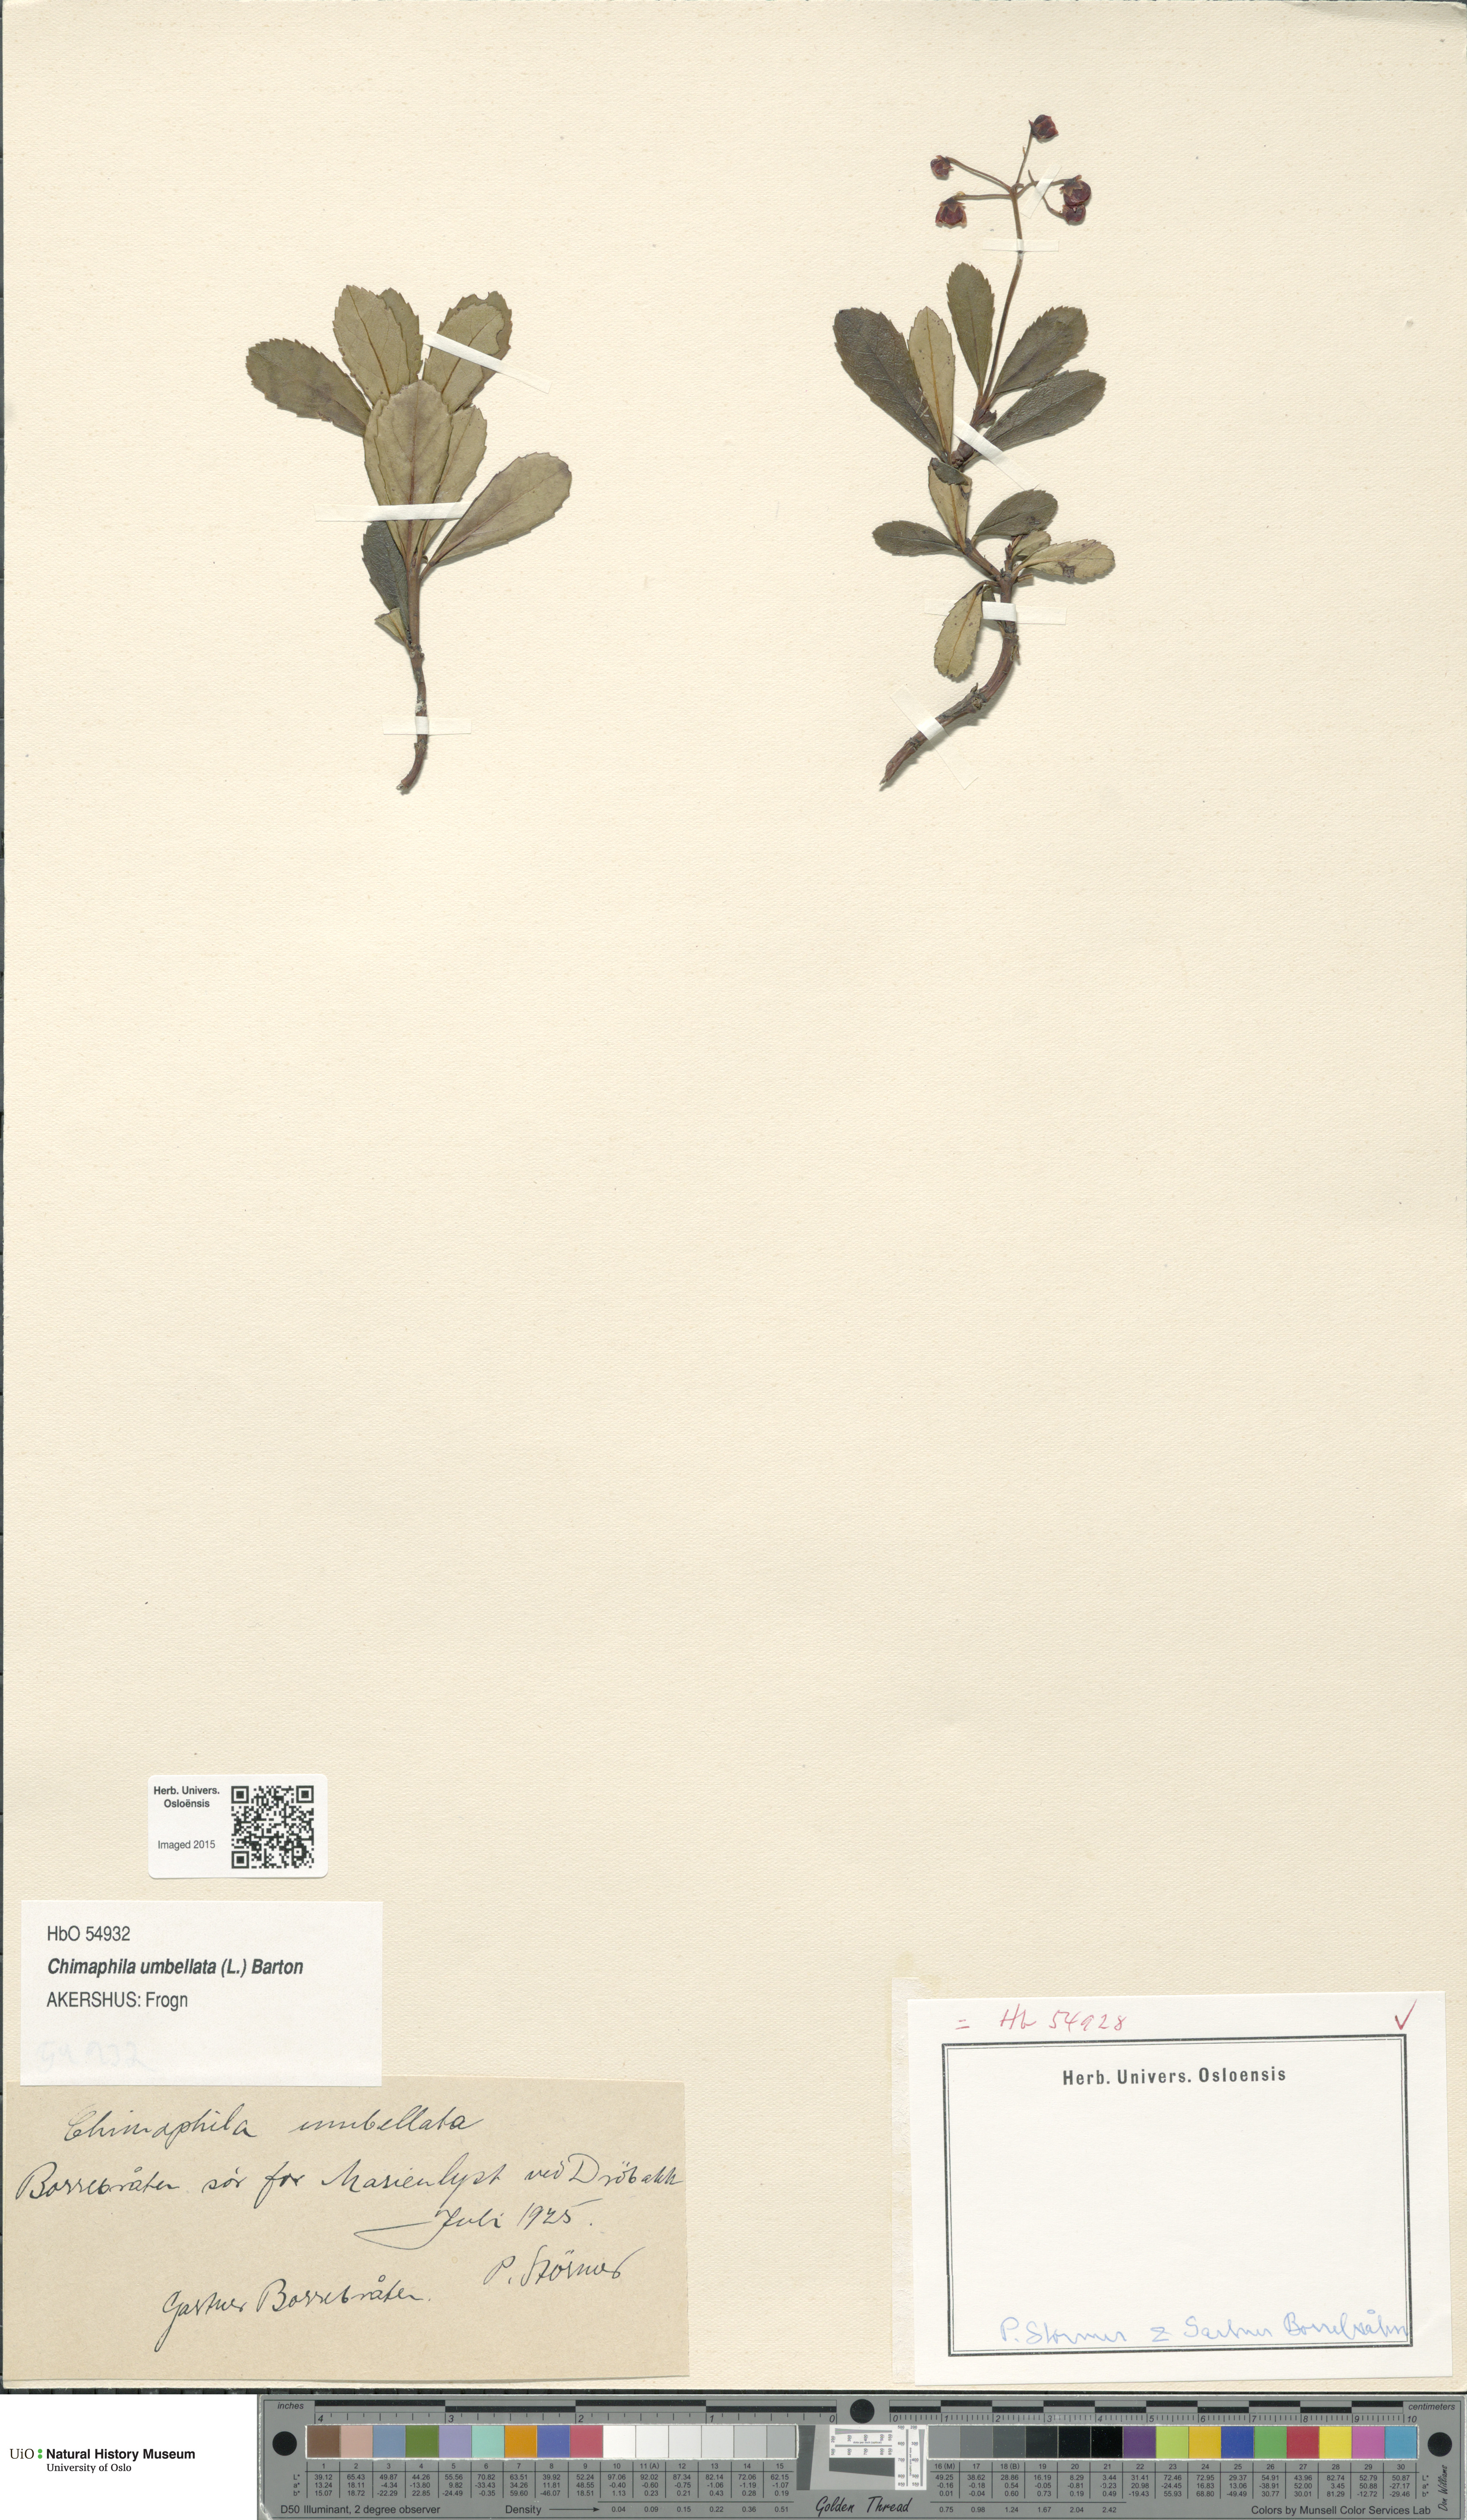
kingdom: Plantae
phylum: Tracheophyta
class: Magnoliopsida
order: Ericales
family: Ericaceae
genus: Chimaphila
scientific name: Chimaphila umbellata
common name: Pipsissewa
